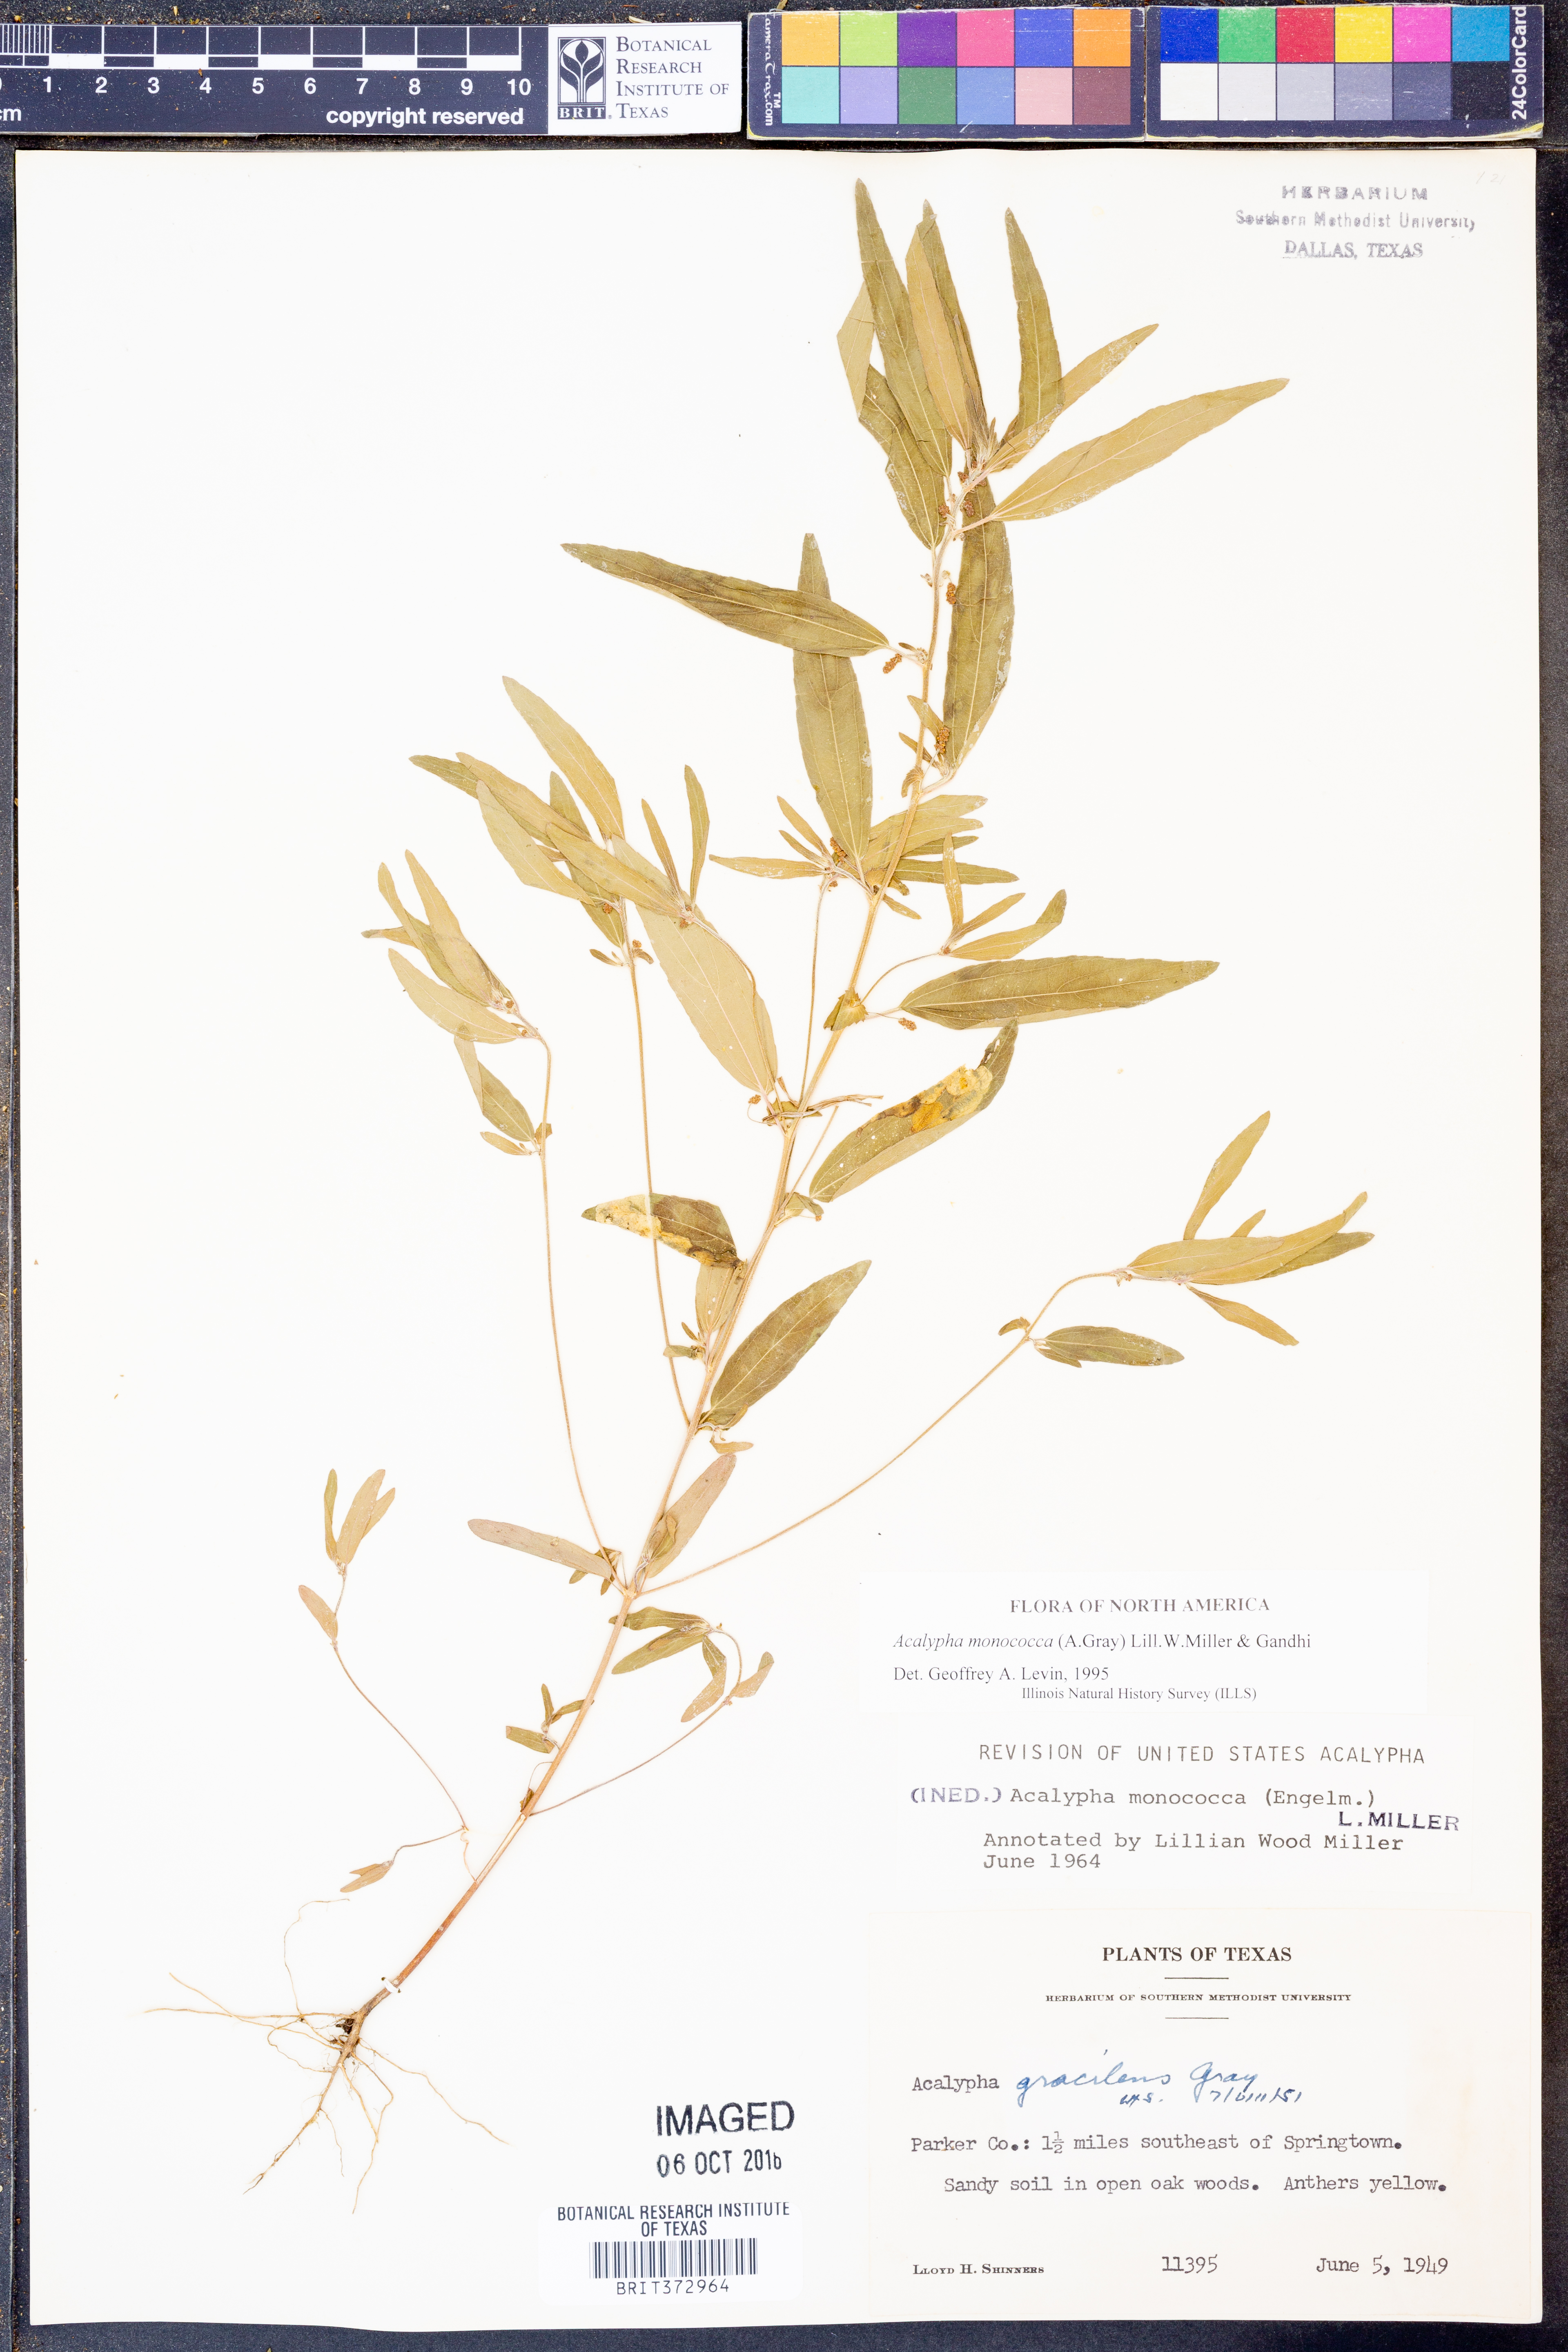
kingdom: Plantae
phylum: Tracheophyta
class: Magnoliopsida
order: Malpighiales
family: Euphorbiaceae
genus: Acalypha
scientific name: Acalypha monococca
